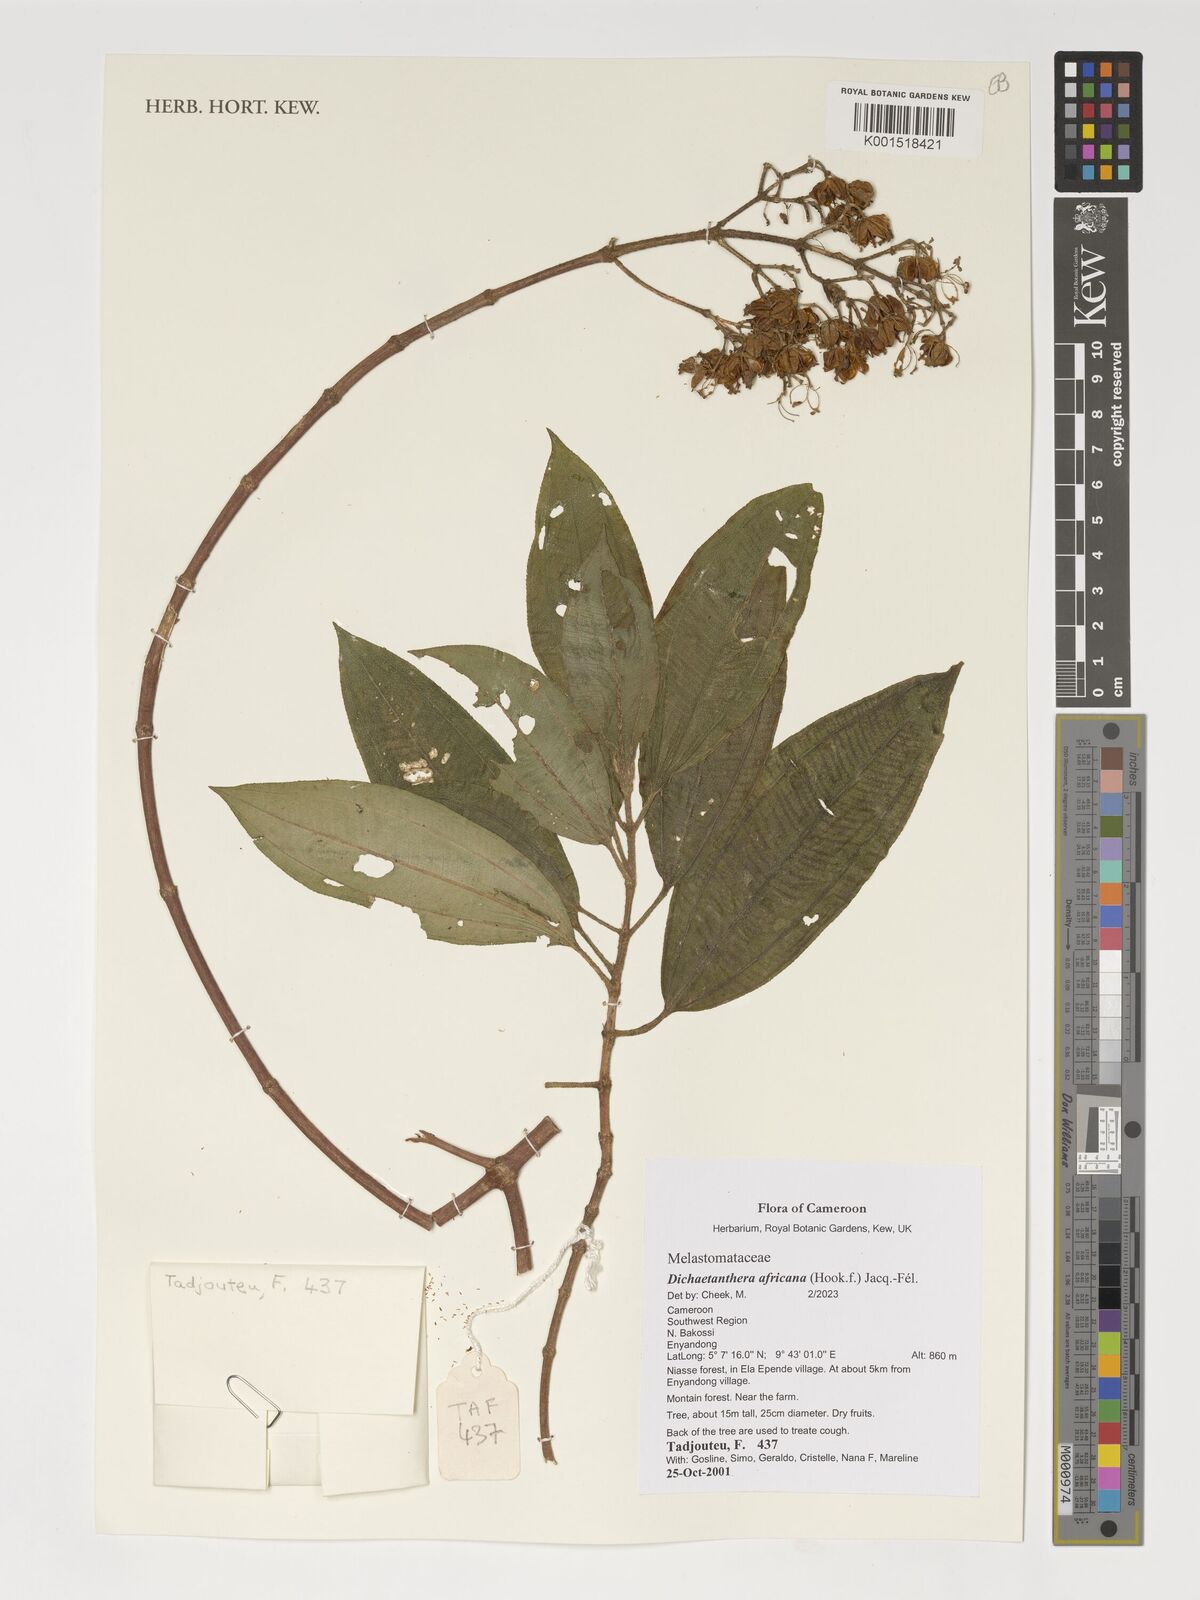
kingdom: Plantae
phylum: Tracheophyta
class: Magnoliopsida
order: Myrtales
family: Melastomataceae
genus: Dichaetanthera
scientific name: Dichaetanthera africana
